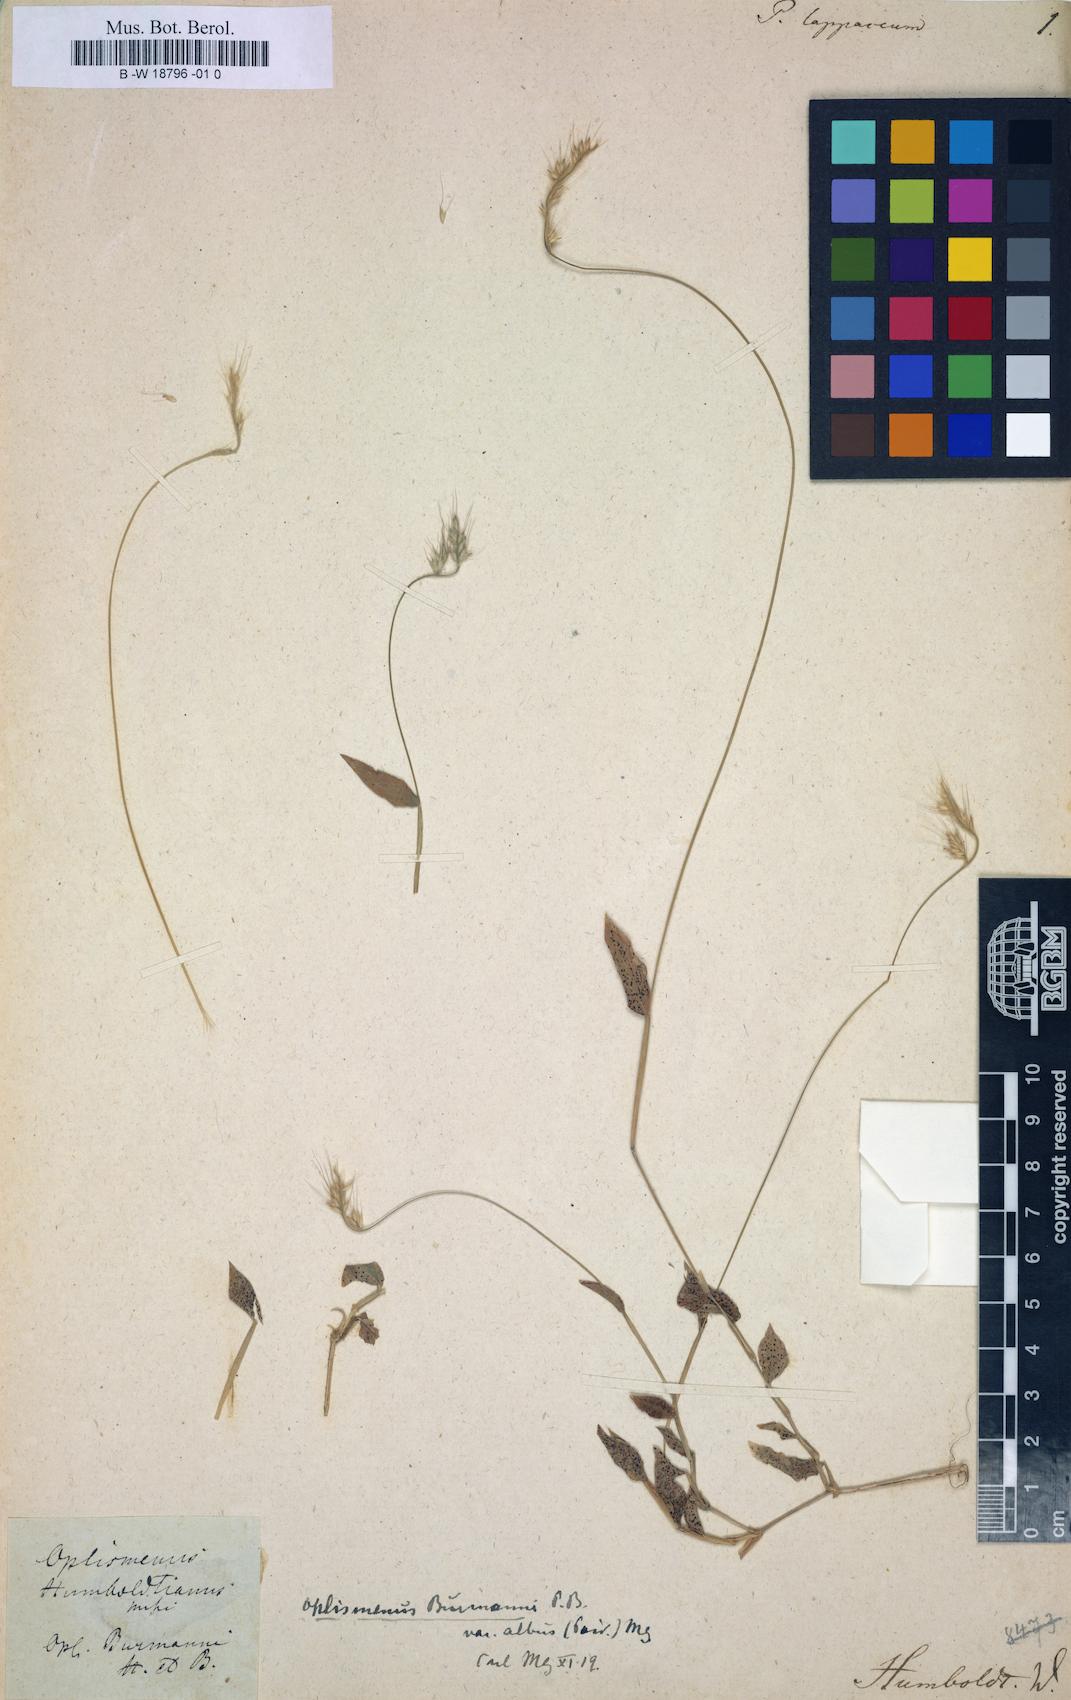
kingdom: Plantae
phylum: Tracheophyta
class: Liliopsida
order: Poales
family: Poaceae
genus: Panicum
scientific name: Panicum
